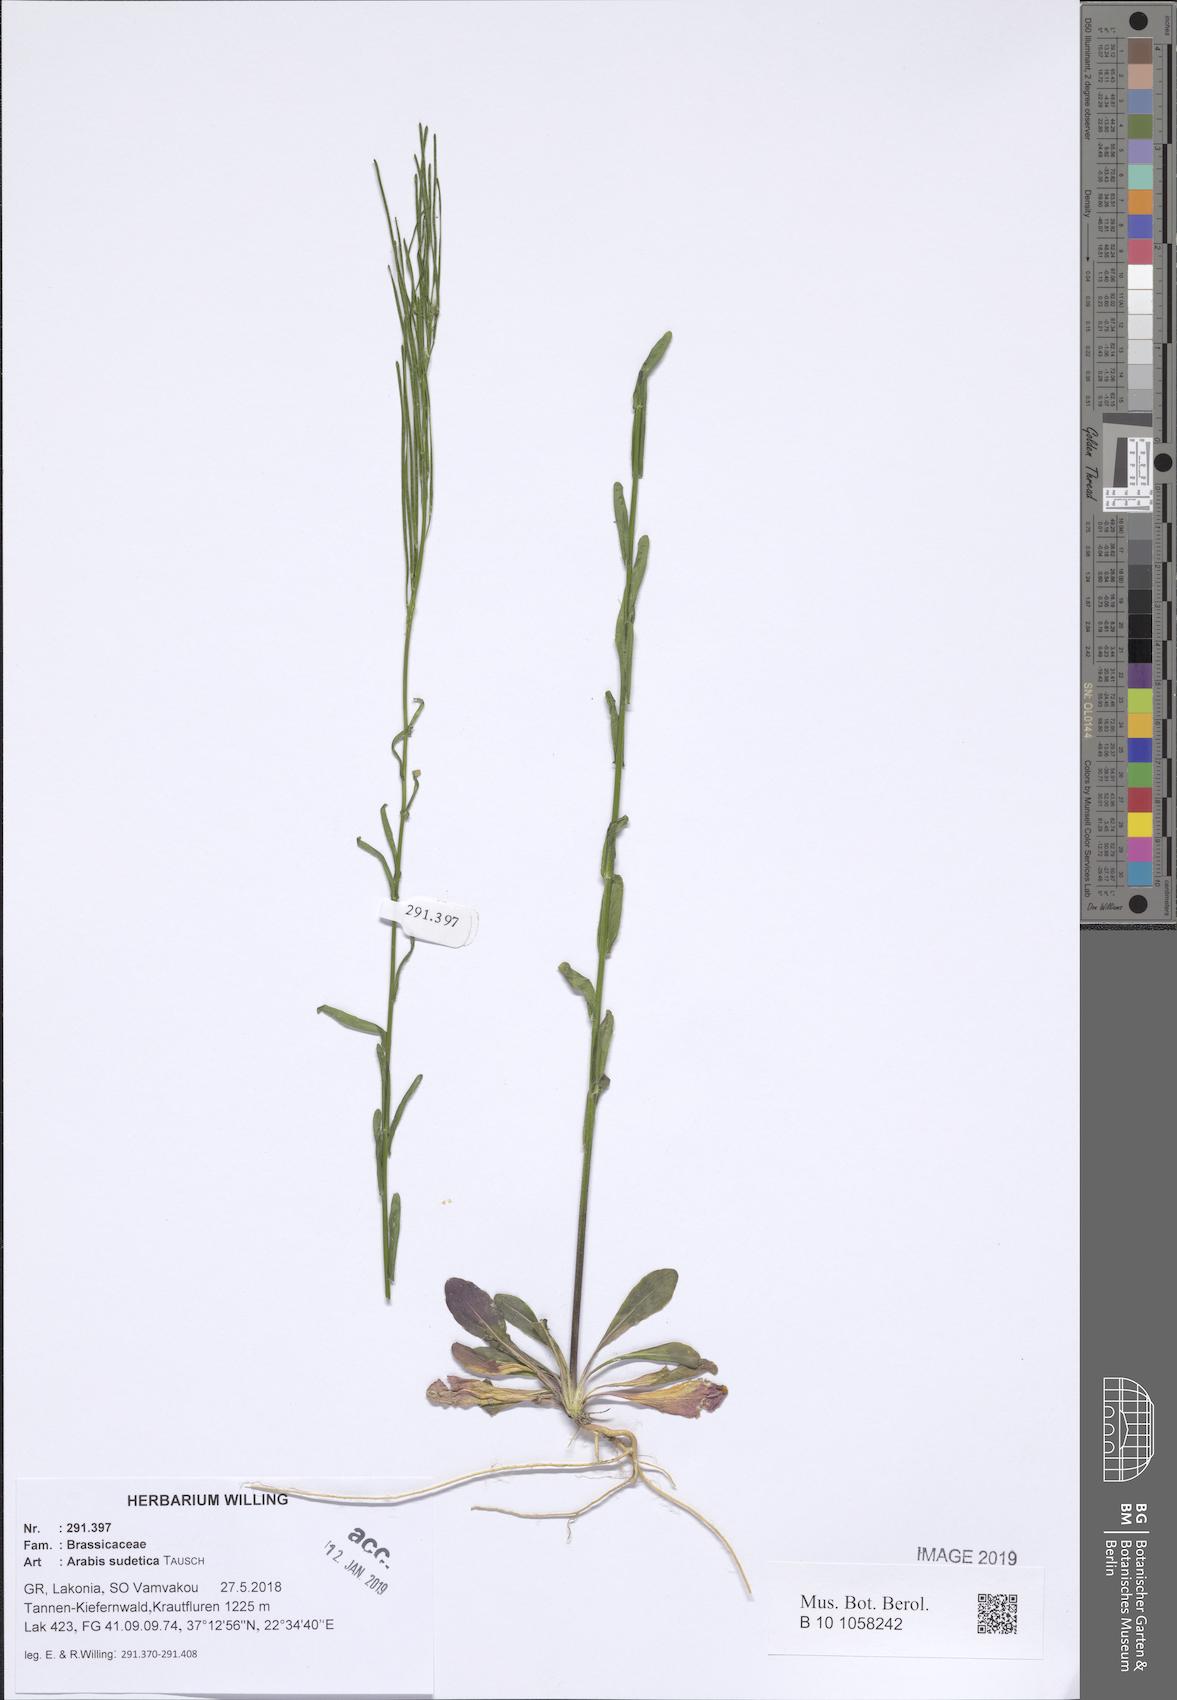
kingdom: Plantae
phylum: Tracheophyta
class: Magnoliopsida
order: Brassicales
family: Brassicaceae
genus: Arabis
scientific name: Arabis sudetica
